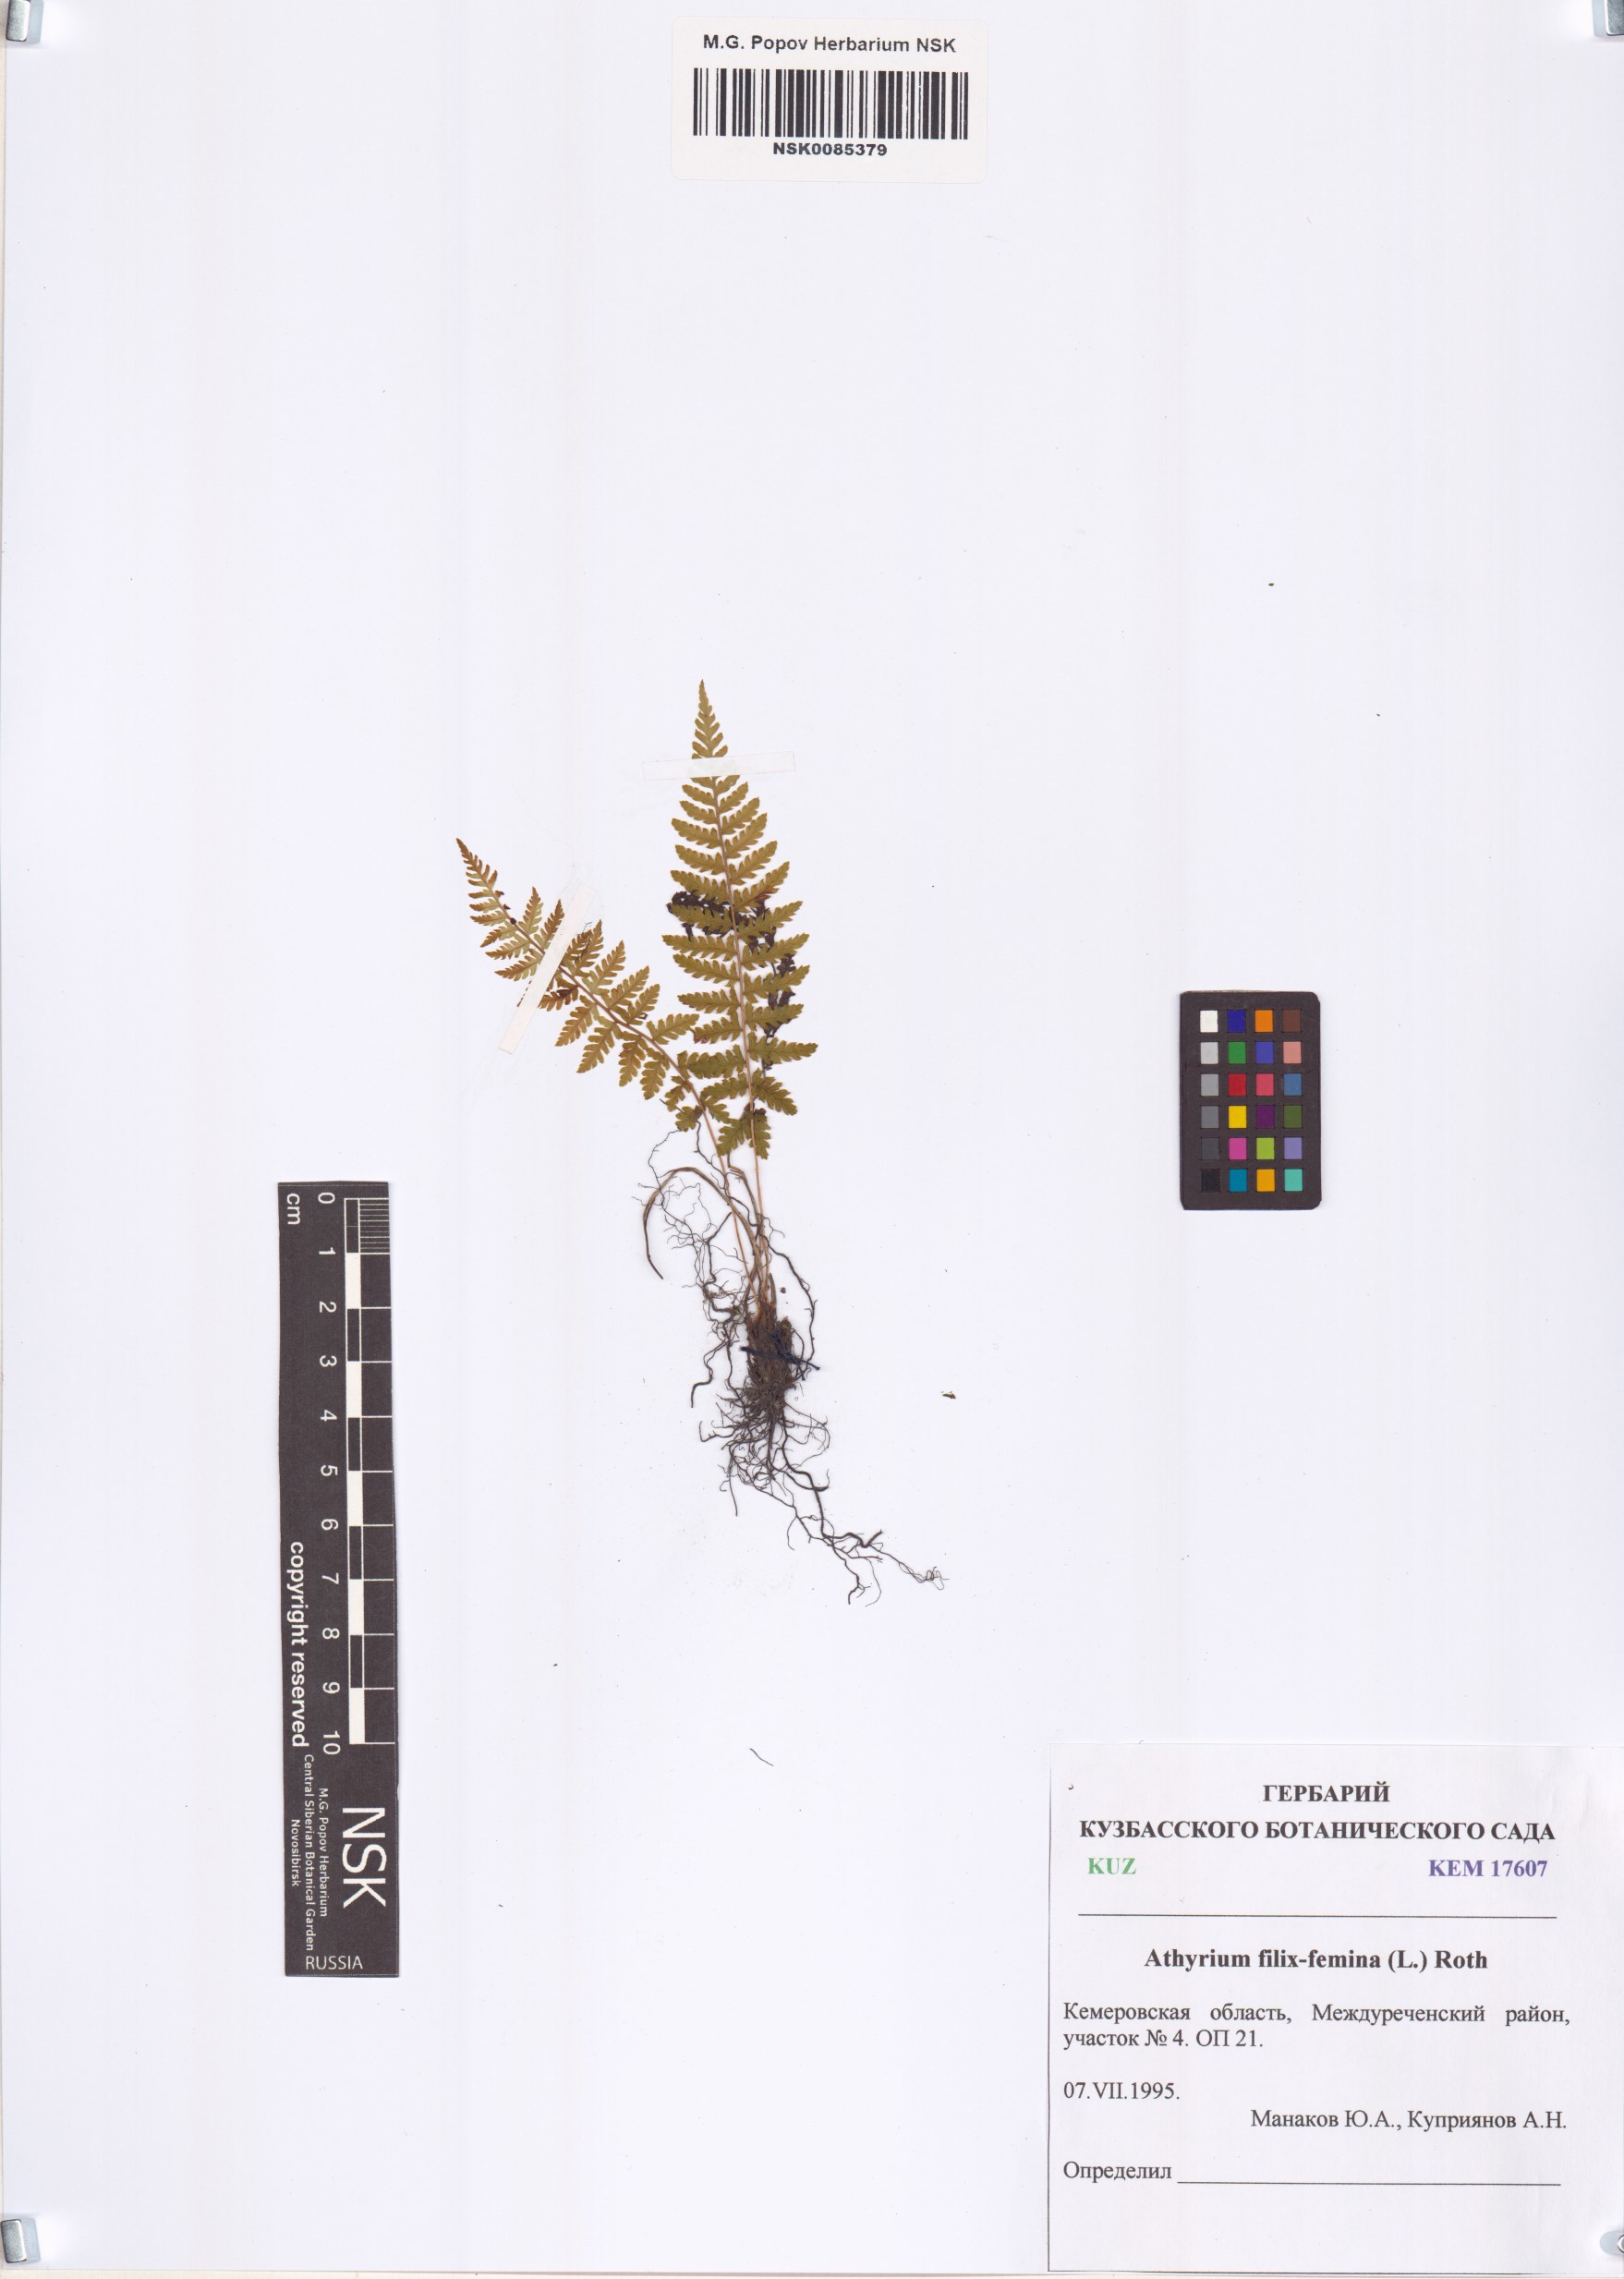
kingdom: Plantae
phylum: Tracheophyta
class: Polypodiopsida
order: Polypodiales
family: Athyriaceae
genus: Athyrium
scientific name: Athyrium filix-femina
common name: Lady fern
